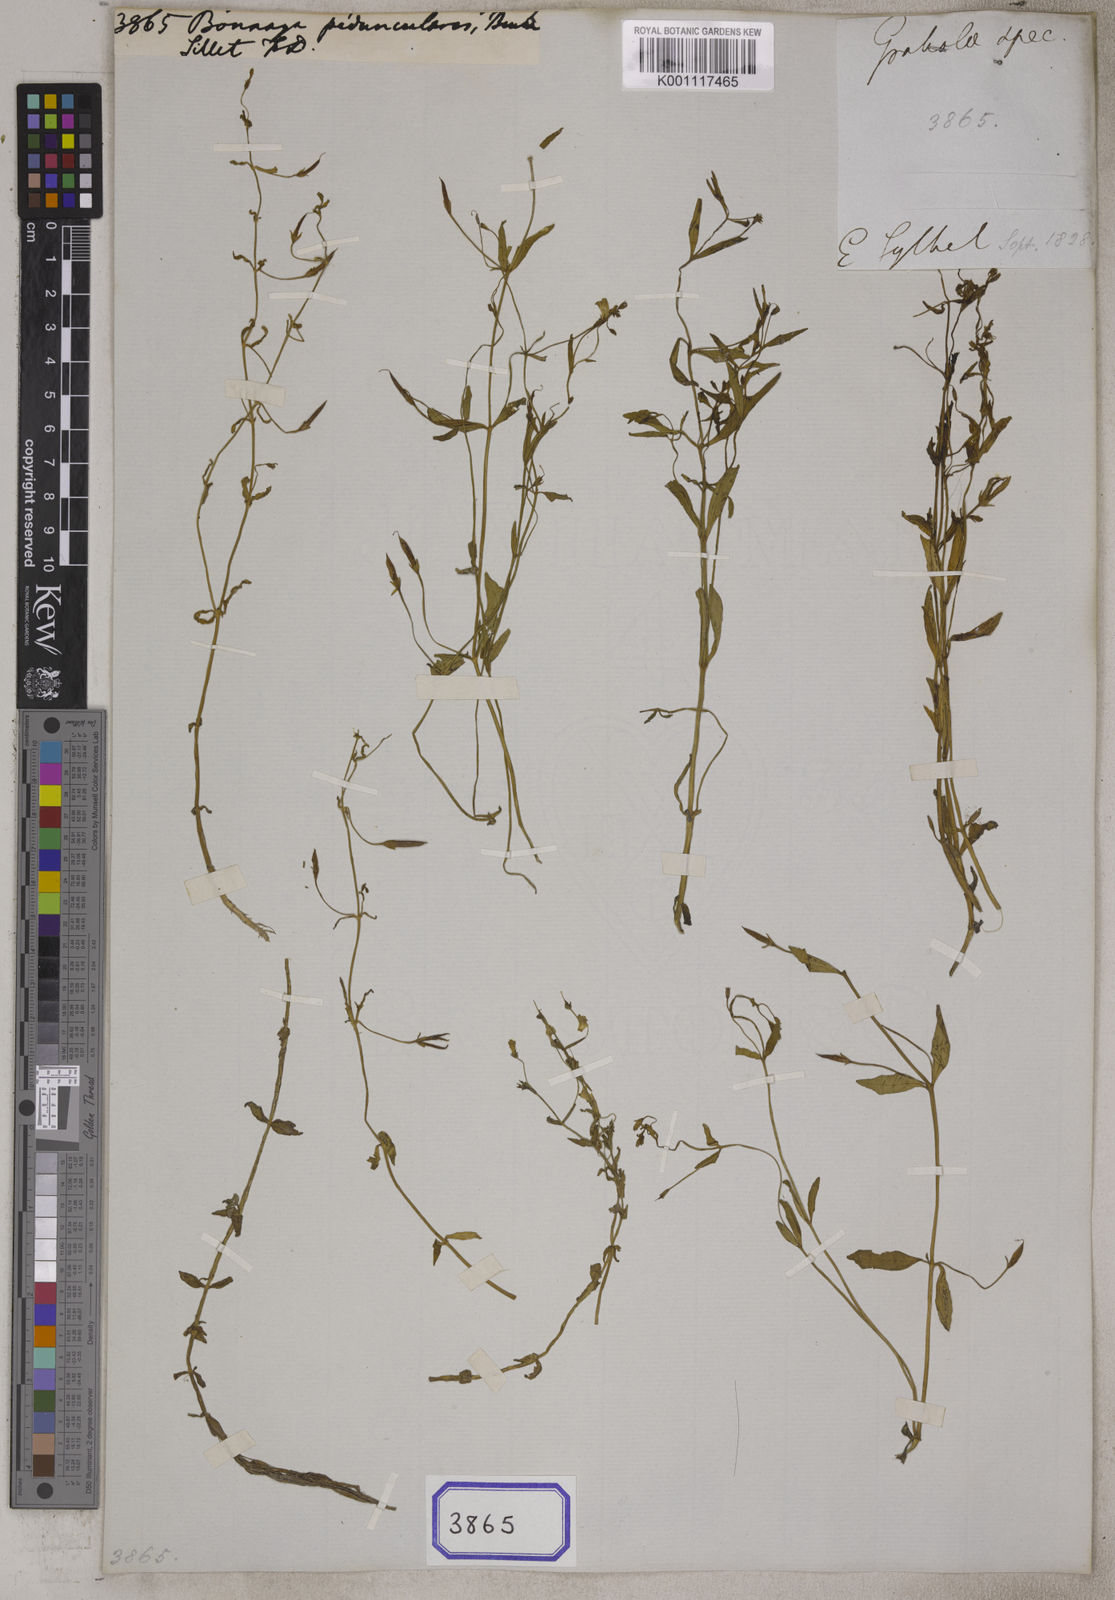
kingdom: Plantae
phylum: Tracheophyta
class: Magnoliopsida
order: Lamiales
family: Linderniaceae
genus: Bonnaya
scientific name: Bonnaya peduncularis
